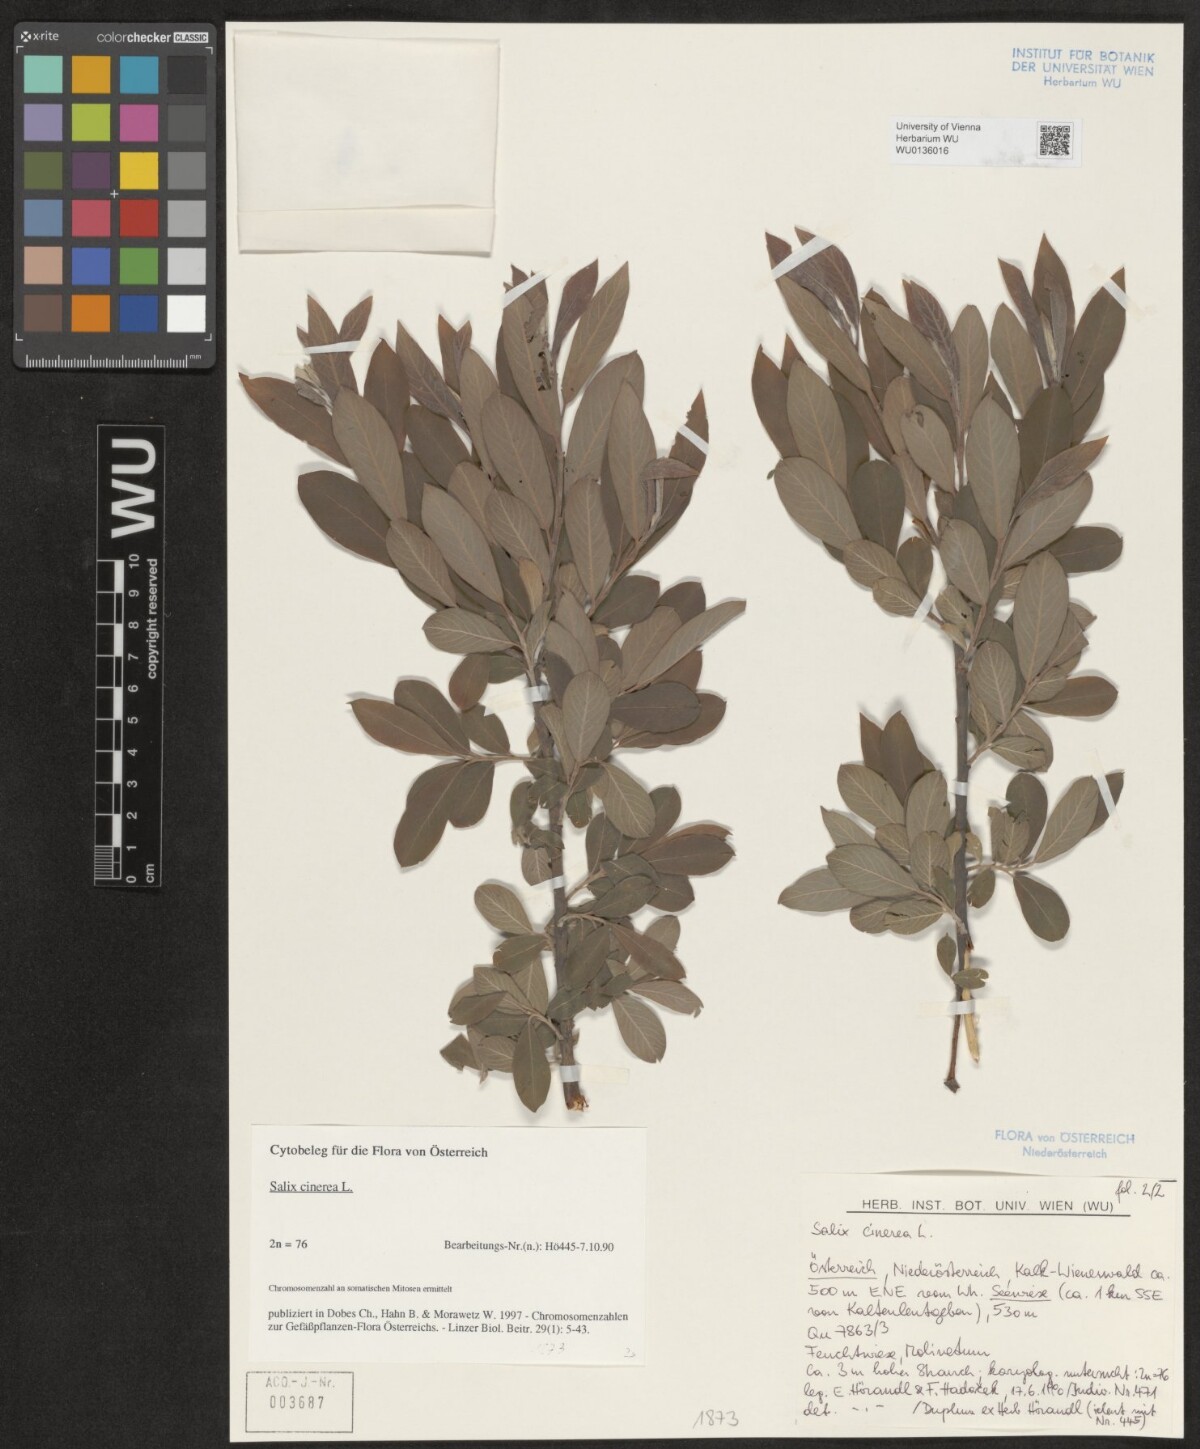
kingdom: Plantae
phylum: Tracheophyta
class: Magnoliopsida
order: Malpighiales
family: Salicaceae
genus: Salix
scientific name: Salix cinerea
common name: Common sallow
